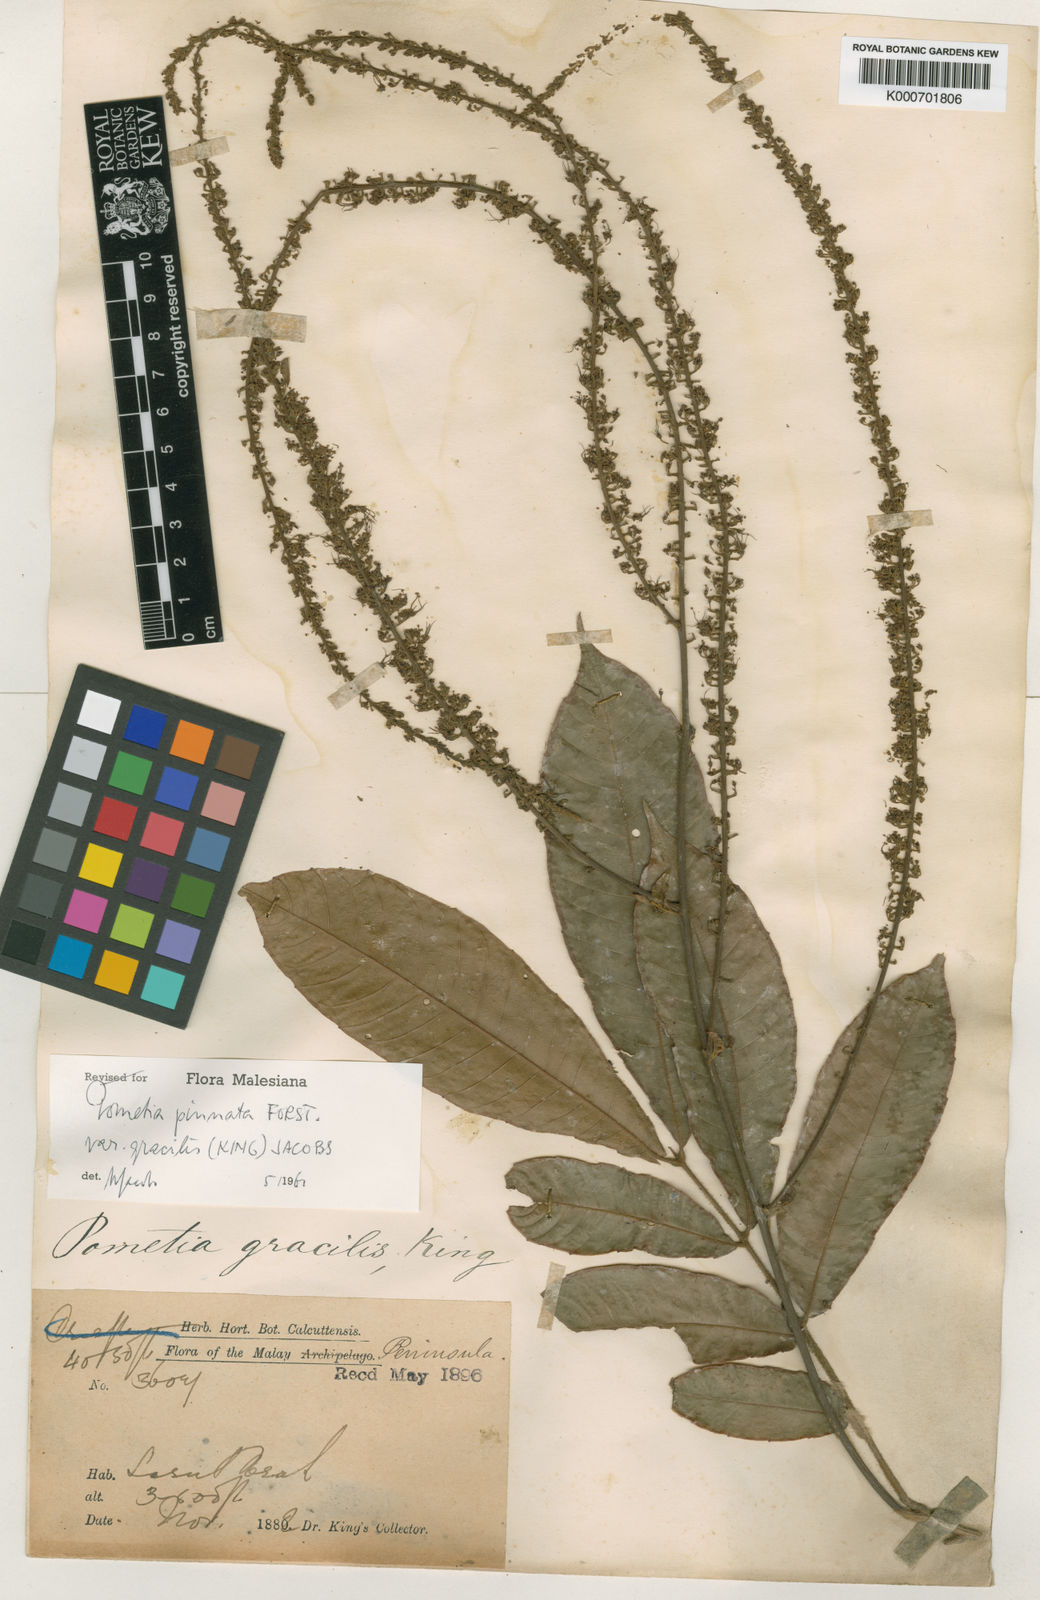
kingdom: Plantae
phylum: Tracheophyta
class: Magnoliopsida
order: Sapindales
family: Sapindaceae
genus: Pometia
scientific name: Pometia pinnata
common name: Oceanic lychee
